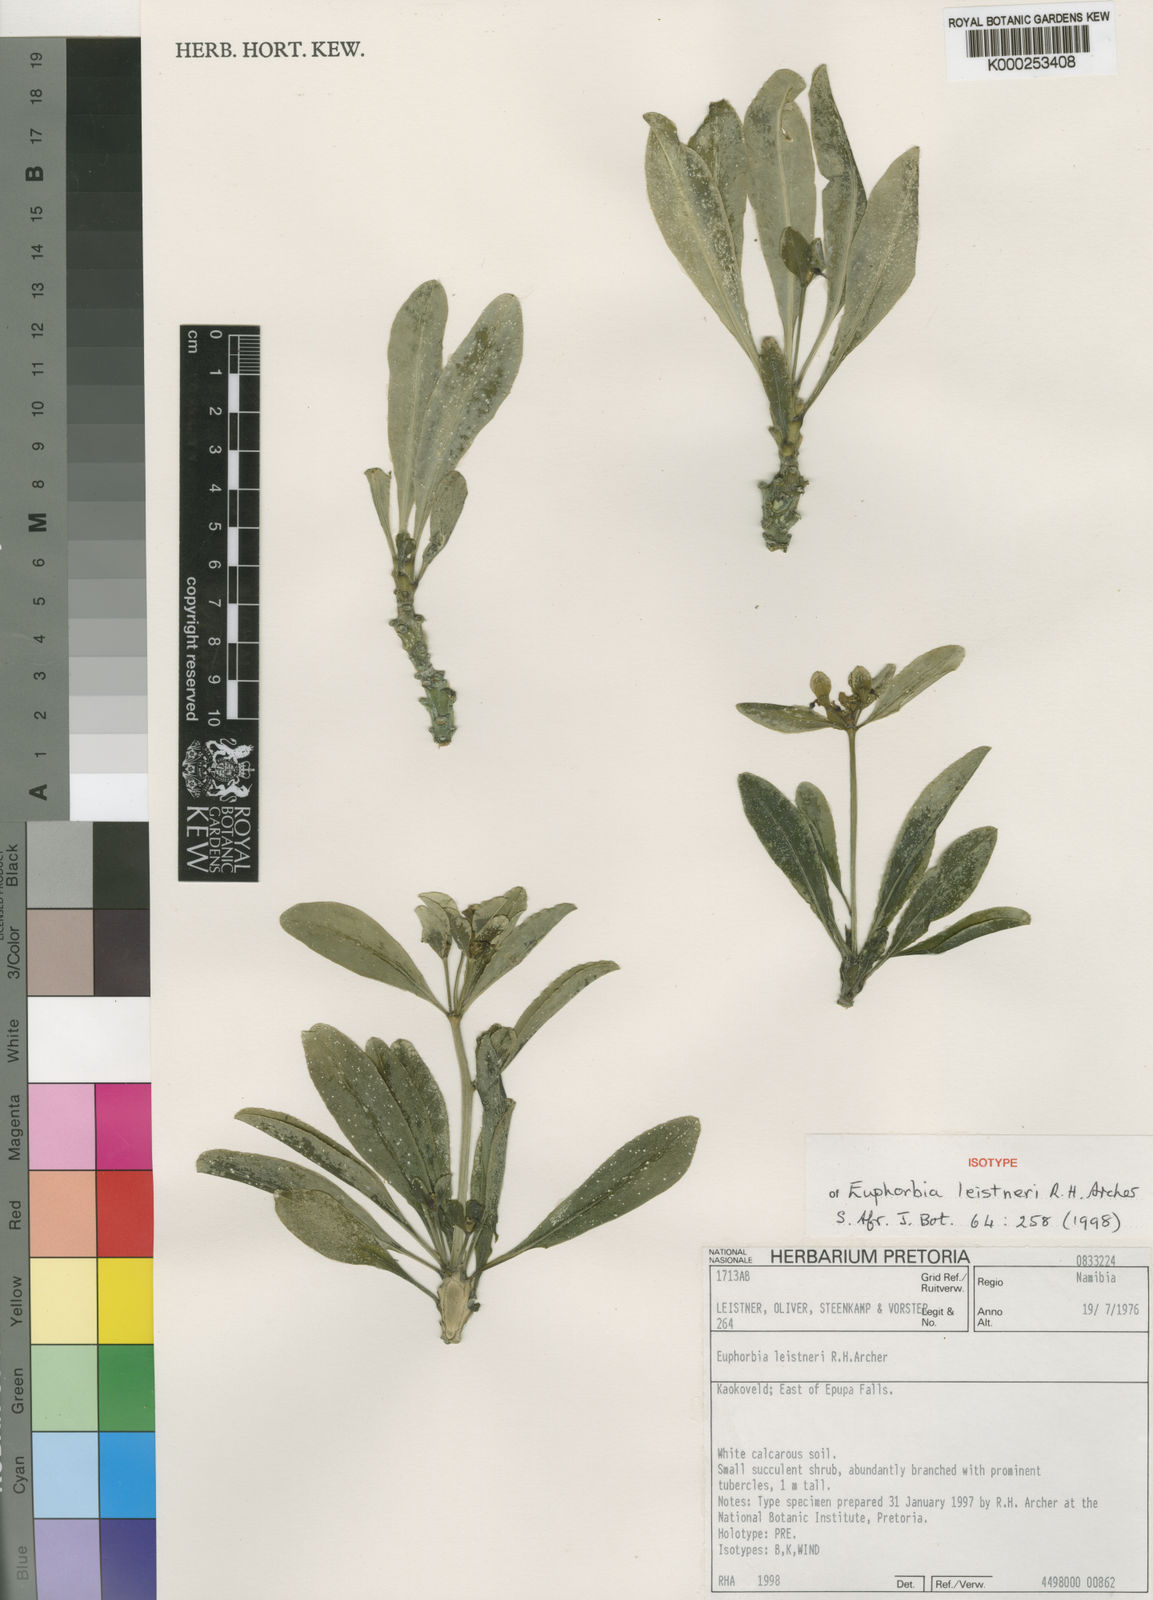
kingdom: Plantae
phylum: Tracheophyta
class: Magnoliopsida
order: Malpighiales
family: Euphorbiaceae
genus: Euphorbia
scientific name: Euphorbia leistneri
